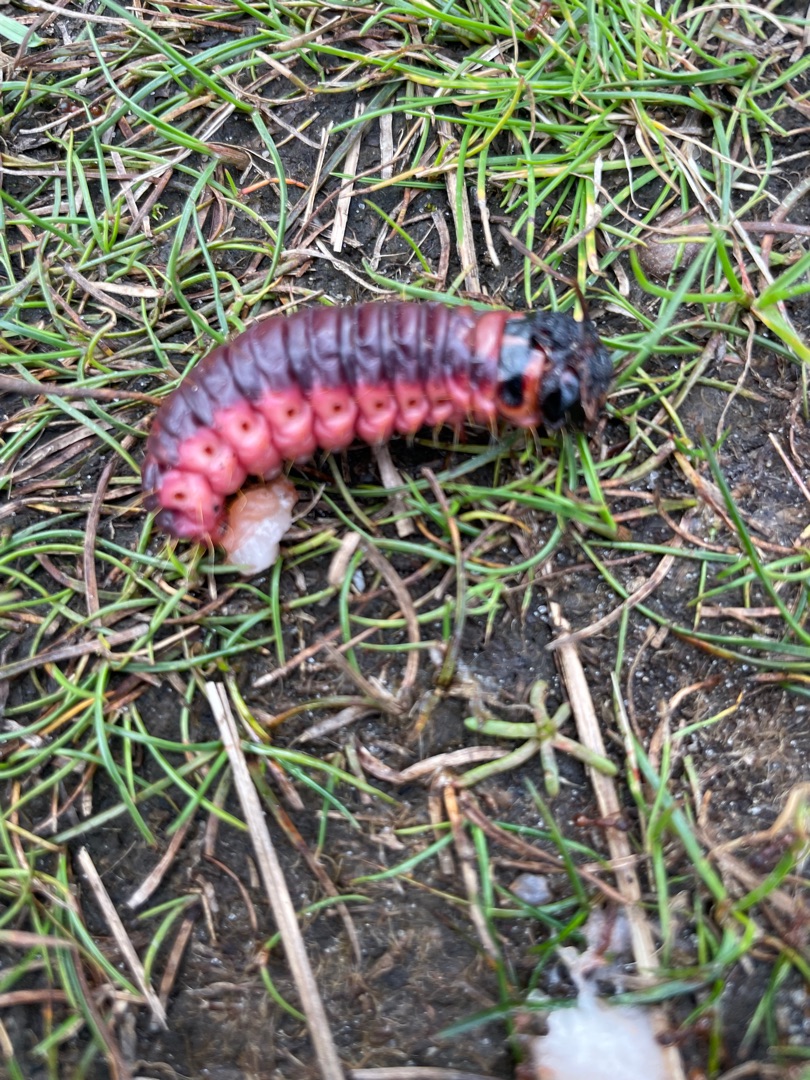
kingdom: Animalia
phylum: Arthropoda
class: Insecta
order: Lepidoptera
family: Cossidae
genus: Cossus
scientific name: Cossus cossus
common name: Pileborer
